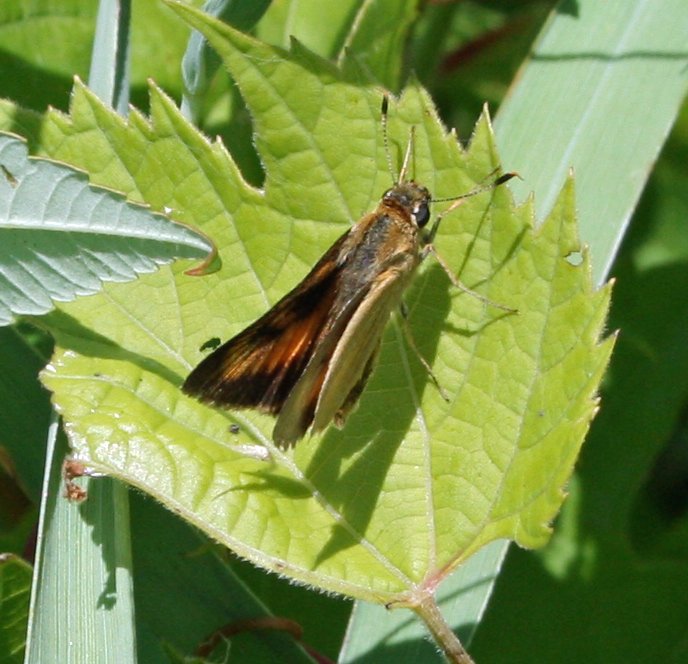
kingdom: Animalia
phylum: Arthropoda
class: Insecta
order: Lepidoptera
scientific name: Lepidoptera
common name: Butterflies
